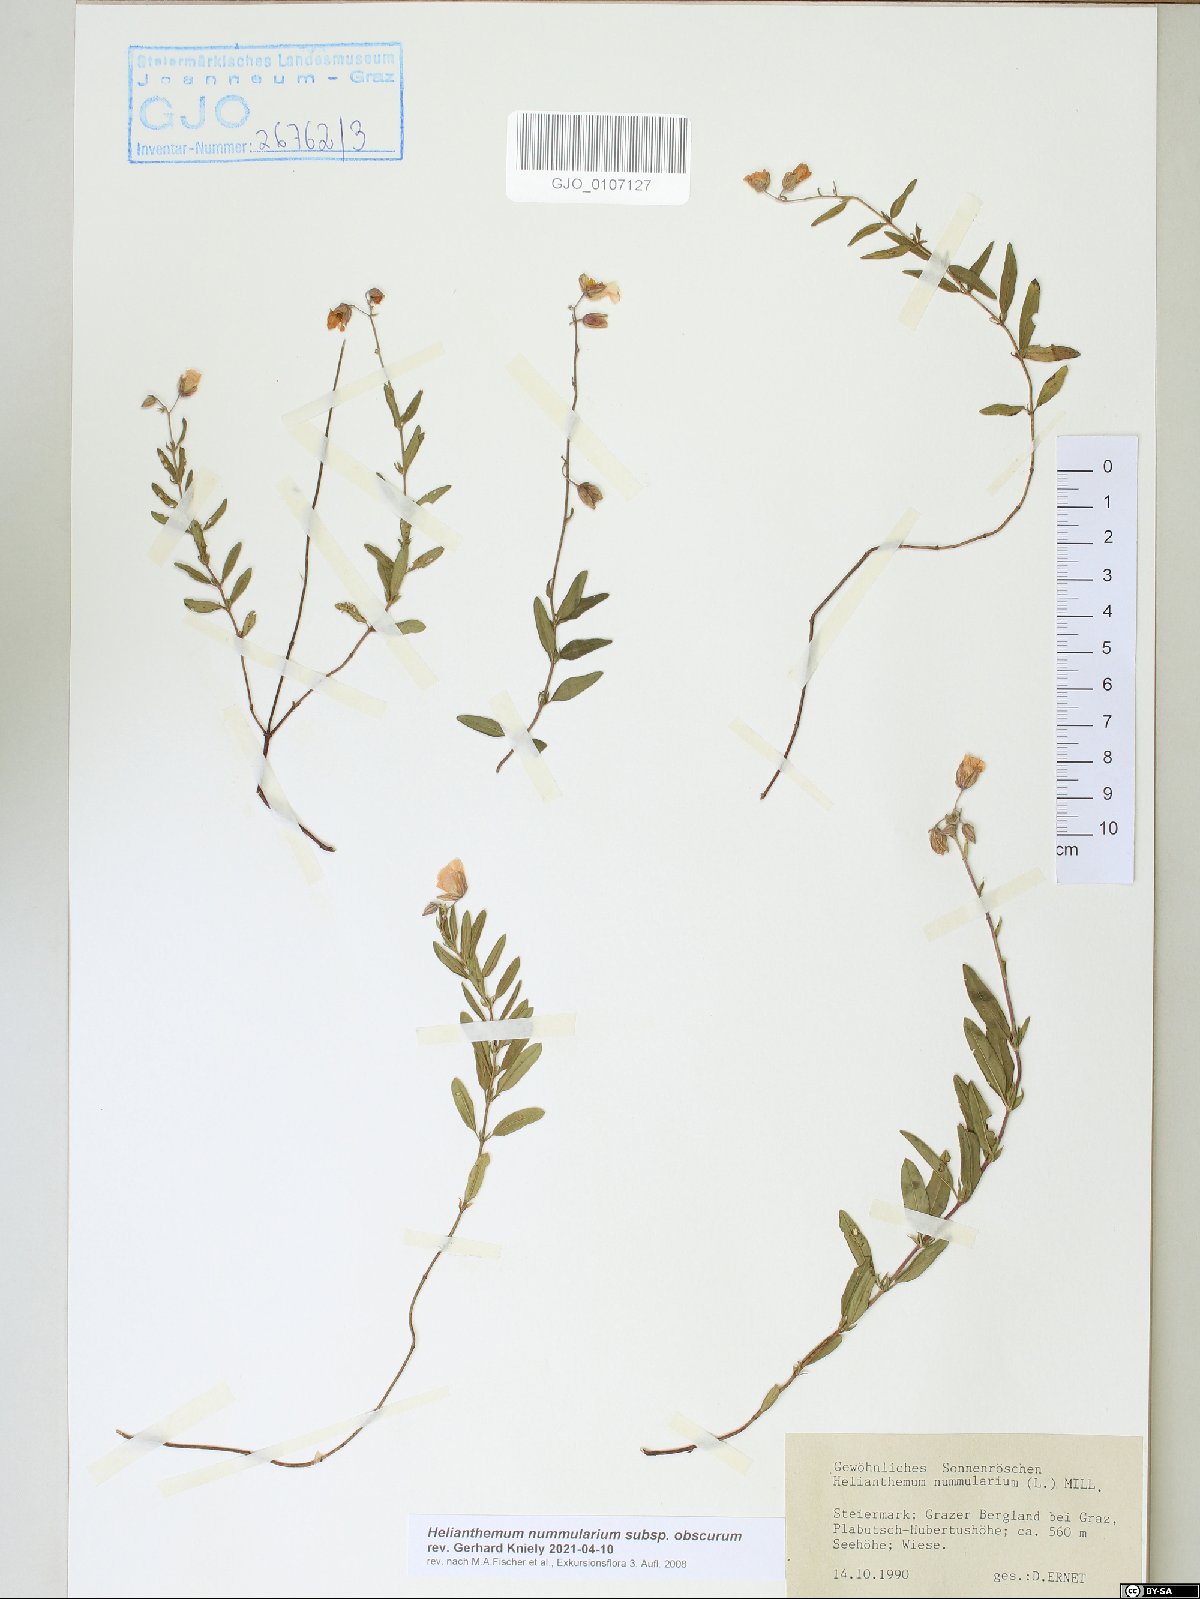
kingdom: Plantae
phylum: Tracheophyta
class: Magnoliopsida
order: Malvales
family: Cistaceae
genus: Helianthemum
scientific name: Helianthemum nummularium
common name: Common rock-rose
